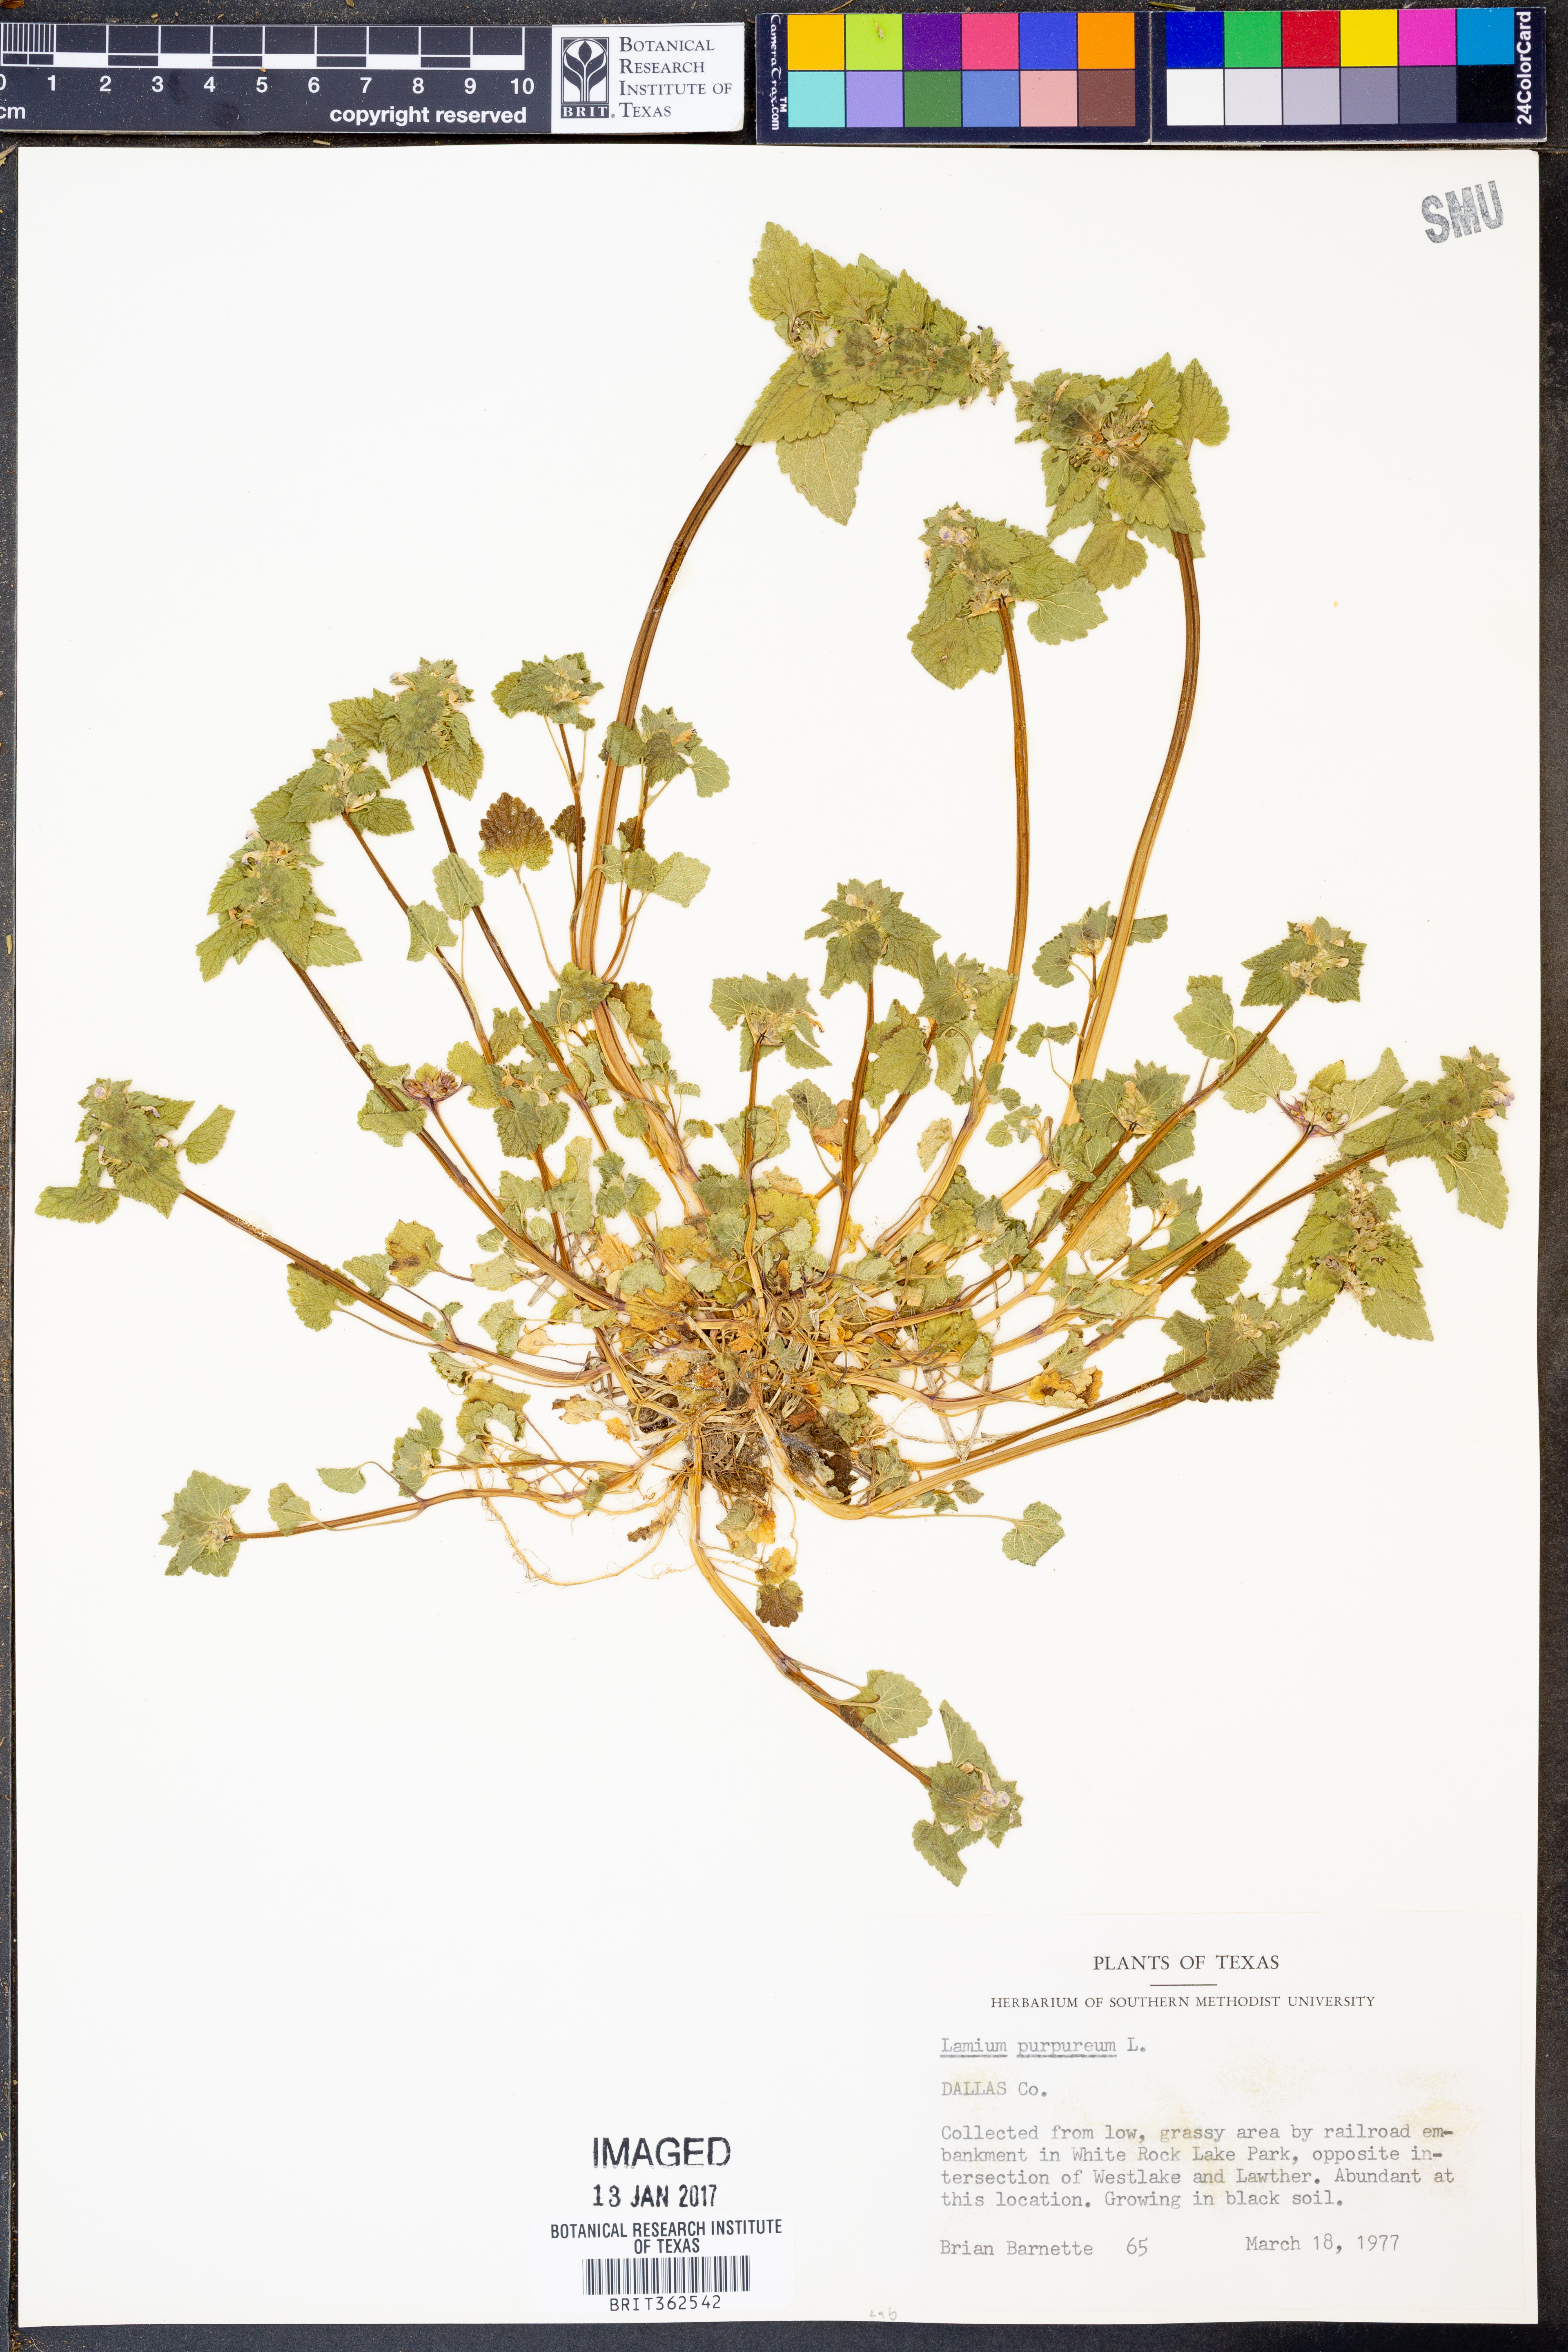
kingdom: Plantae
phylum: Tracheophyta
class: Magnoliopsida
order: Lamiales
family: Lamiaceae
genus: Lamium
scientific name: Lamium purpureum
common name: Red dead-nettle
